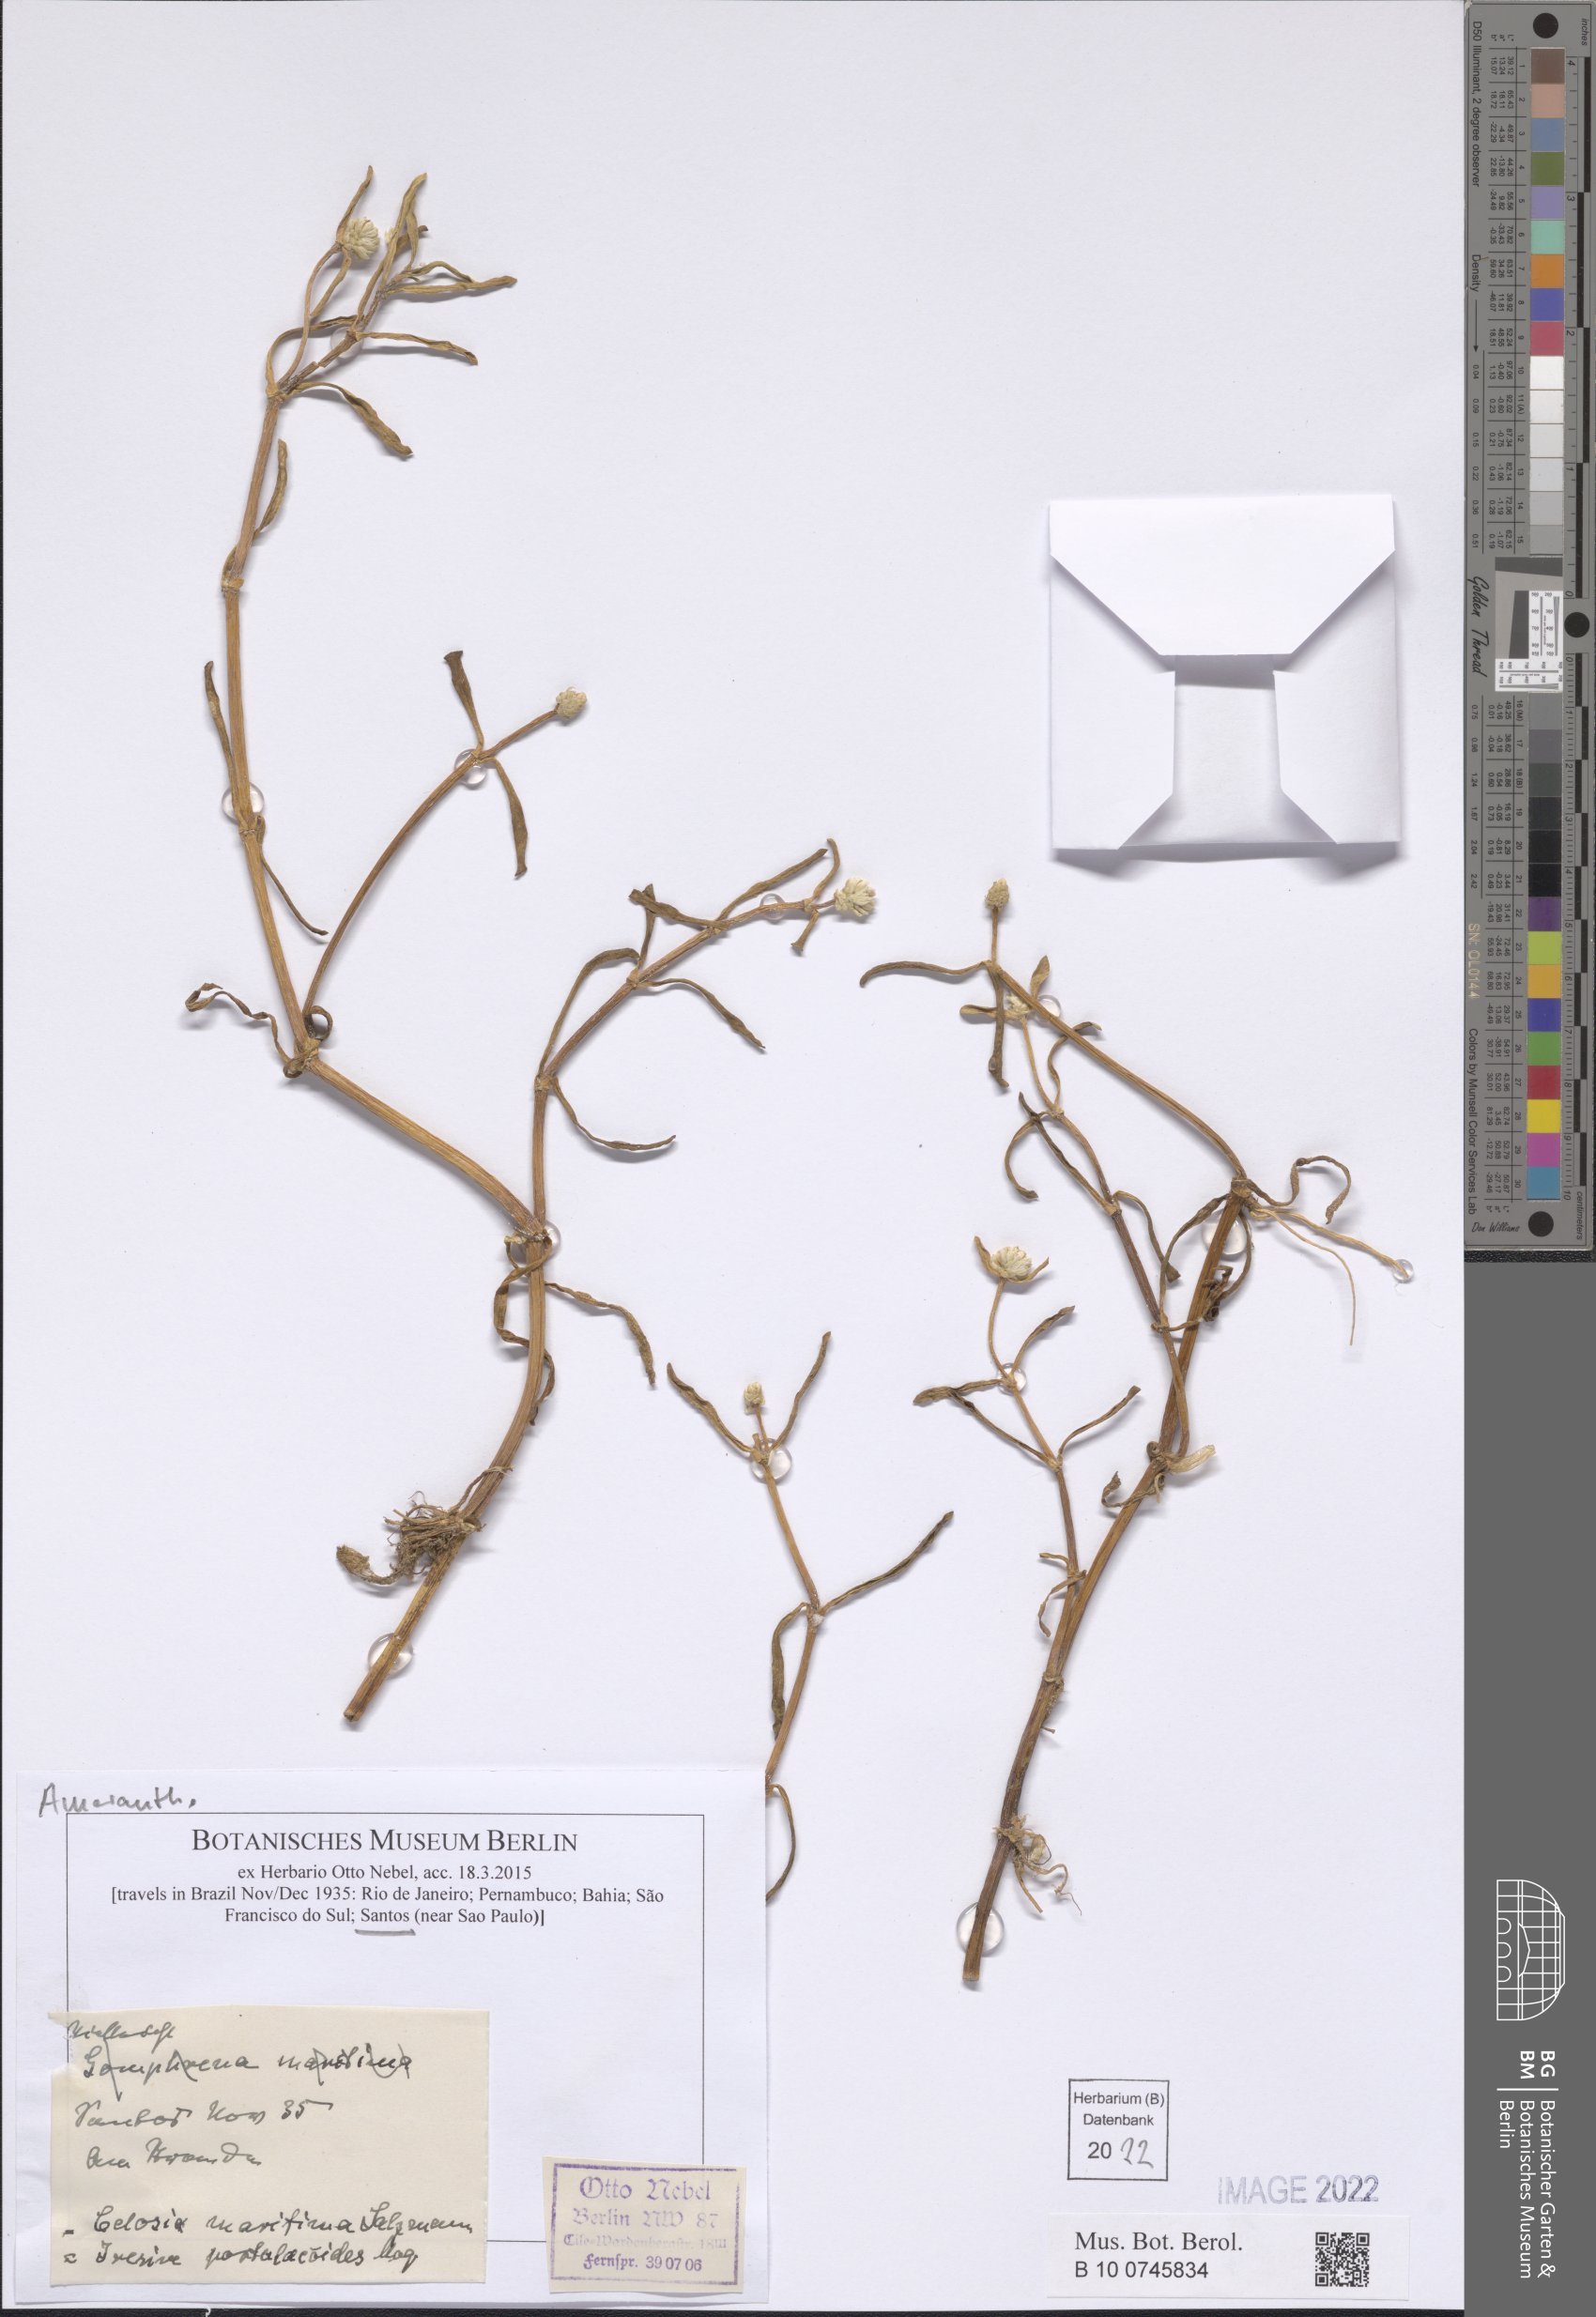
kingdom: Plantae
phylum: Tracheophyta
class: Magnoliopsida
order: Caryophyllales
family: Amaranthaceae
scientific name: Amaranthaceae
